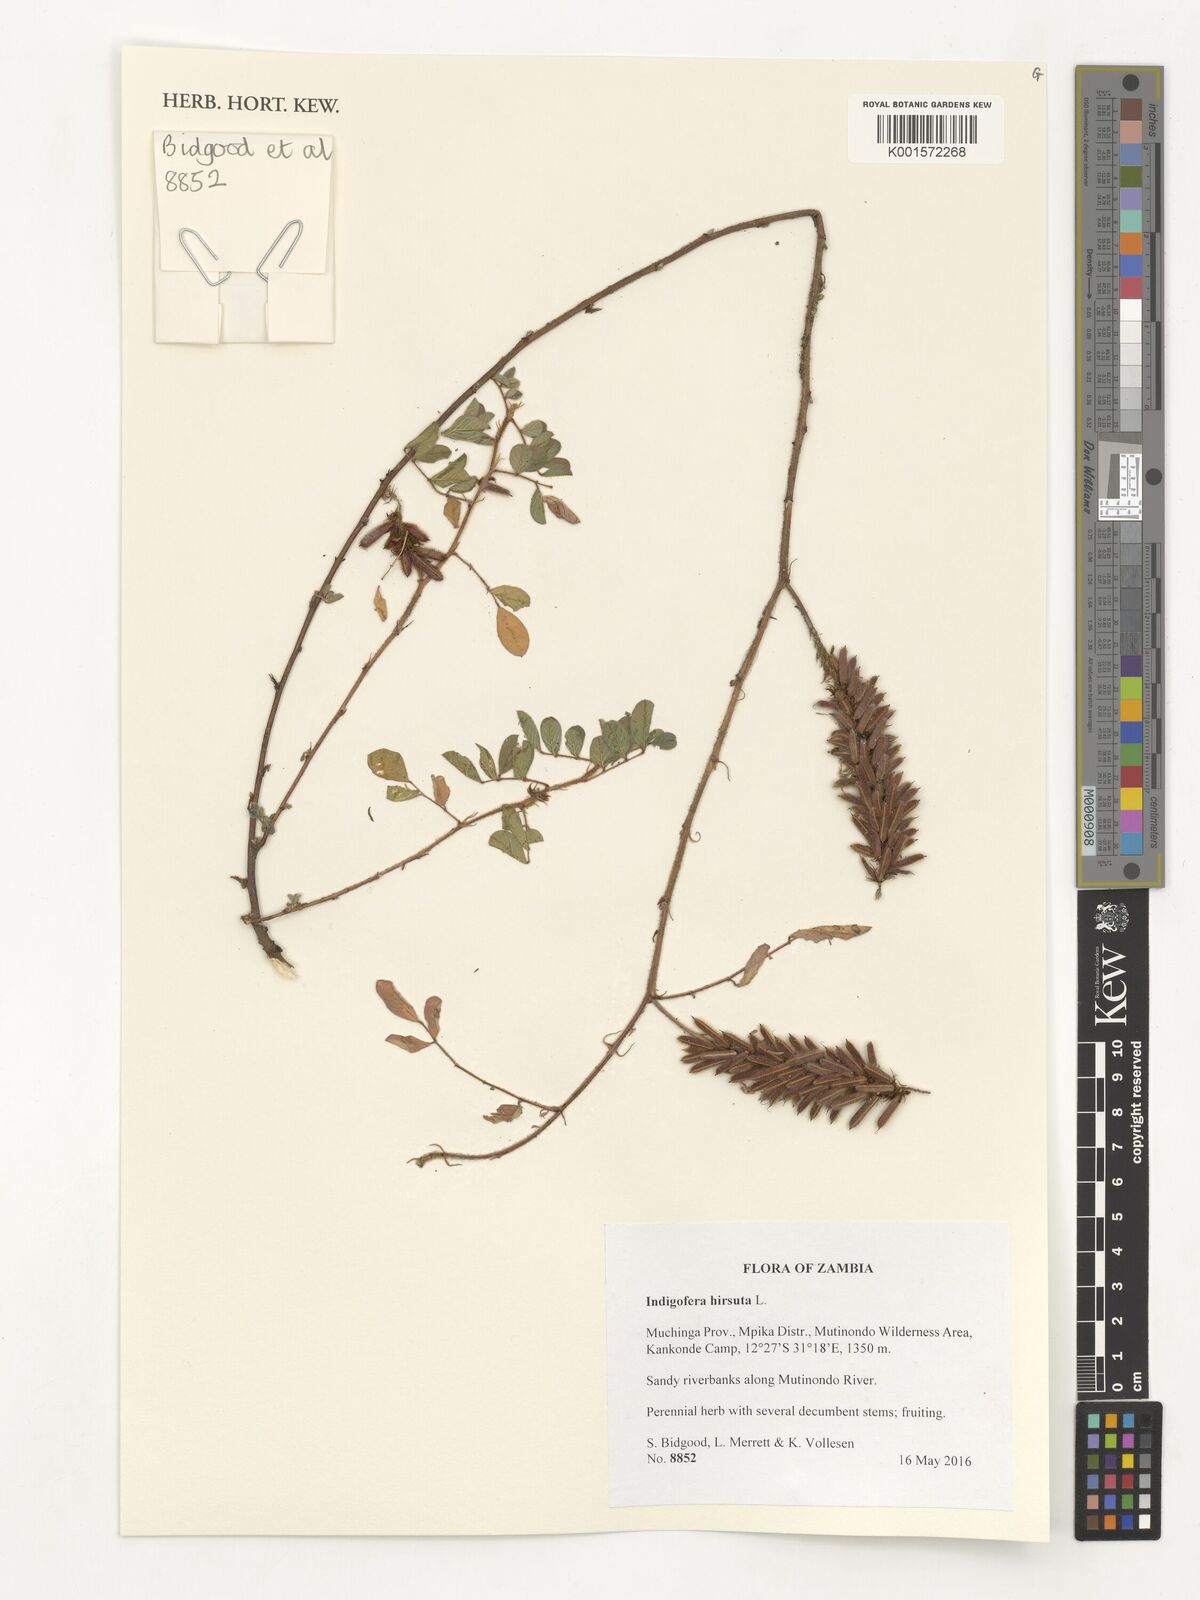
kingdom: Plantae
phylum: Tracheophyta
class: Magnoliopsida
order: Fabales
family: Fabaceae
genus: Indigofera
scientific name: Indigofera hirsuta
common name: Hairy indigo
